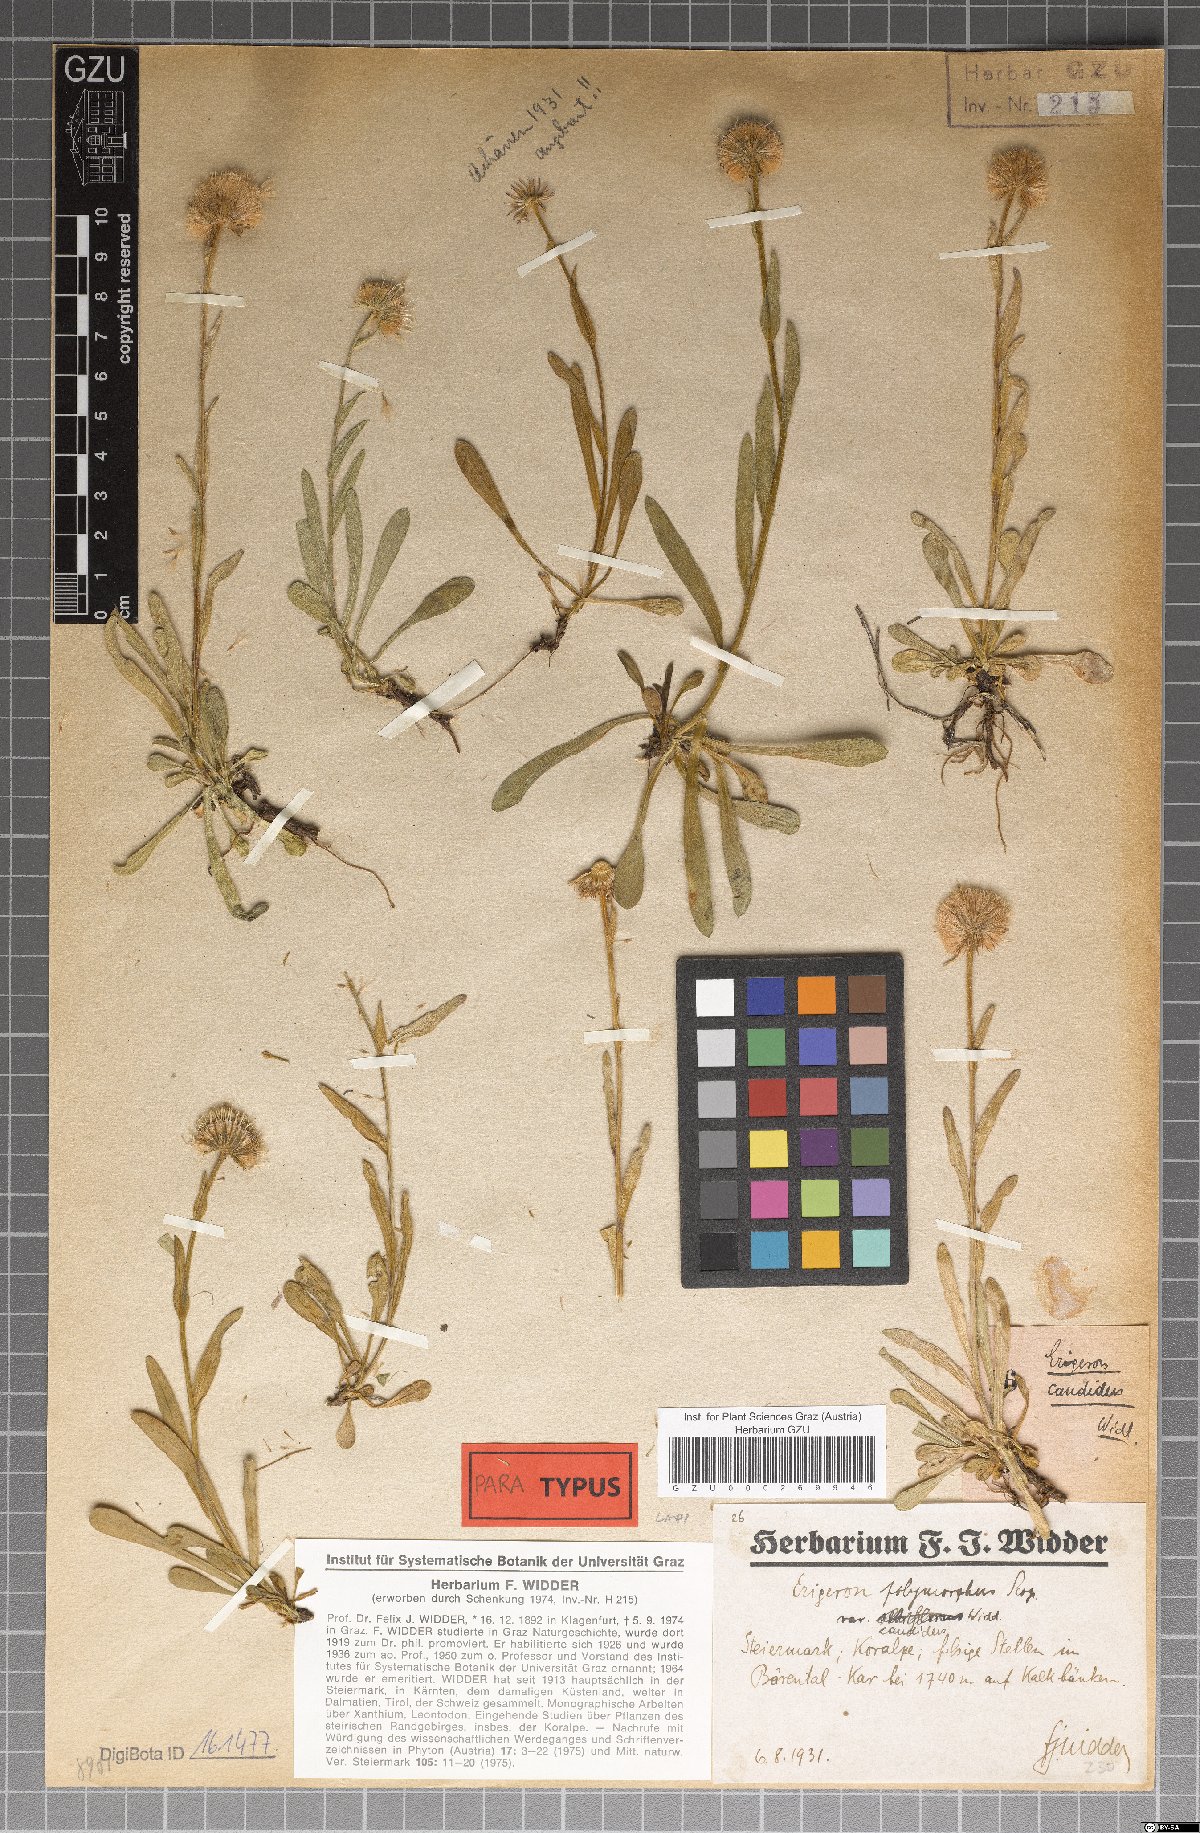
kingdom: Plantae
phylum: Tracheophyta
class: Magnoliopsida
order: Asterales
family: Asteraceae
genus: Erigeron
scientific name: Erigeron glabratus
